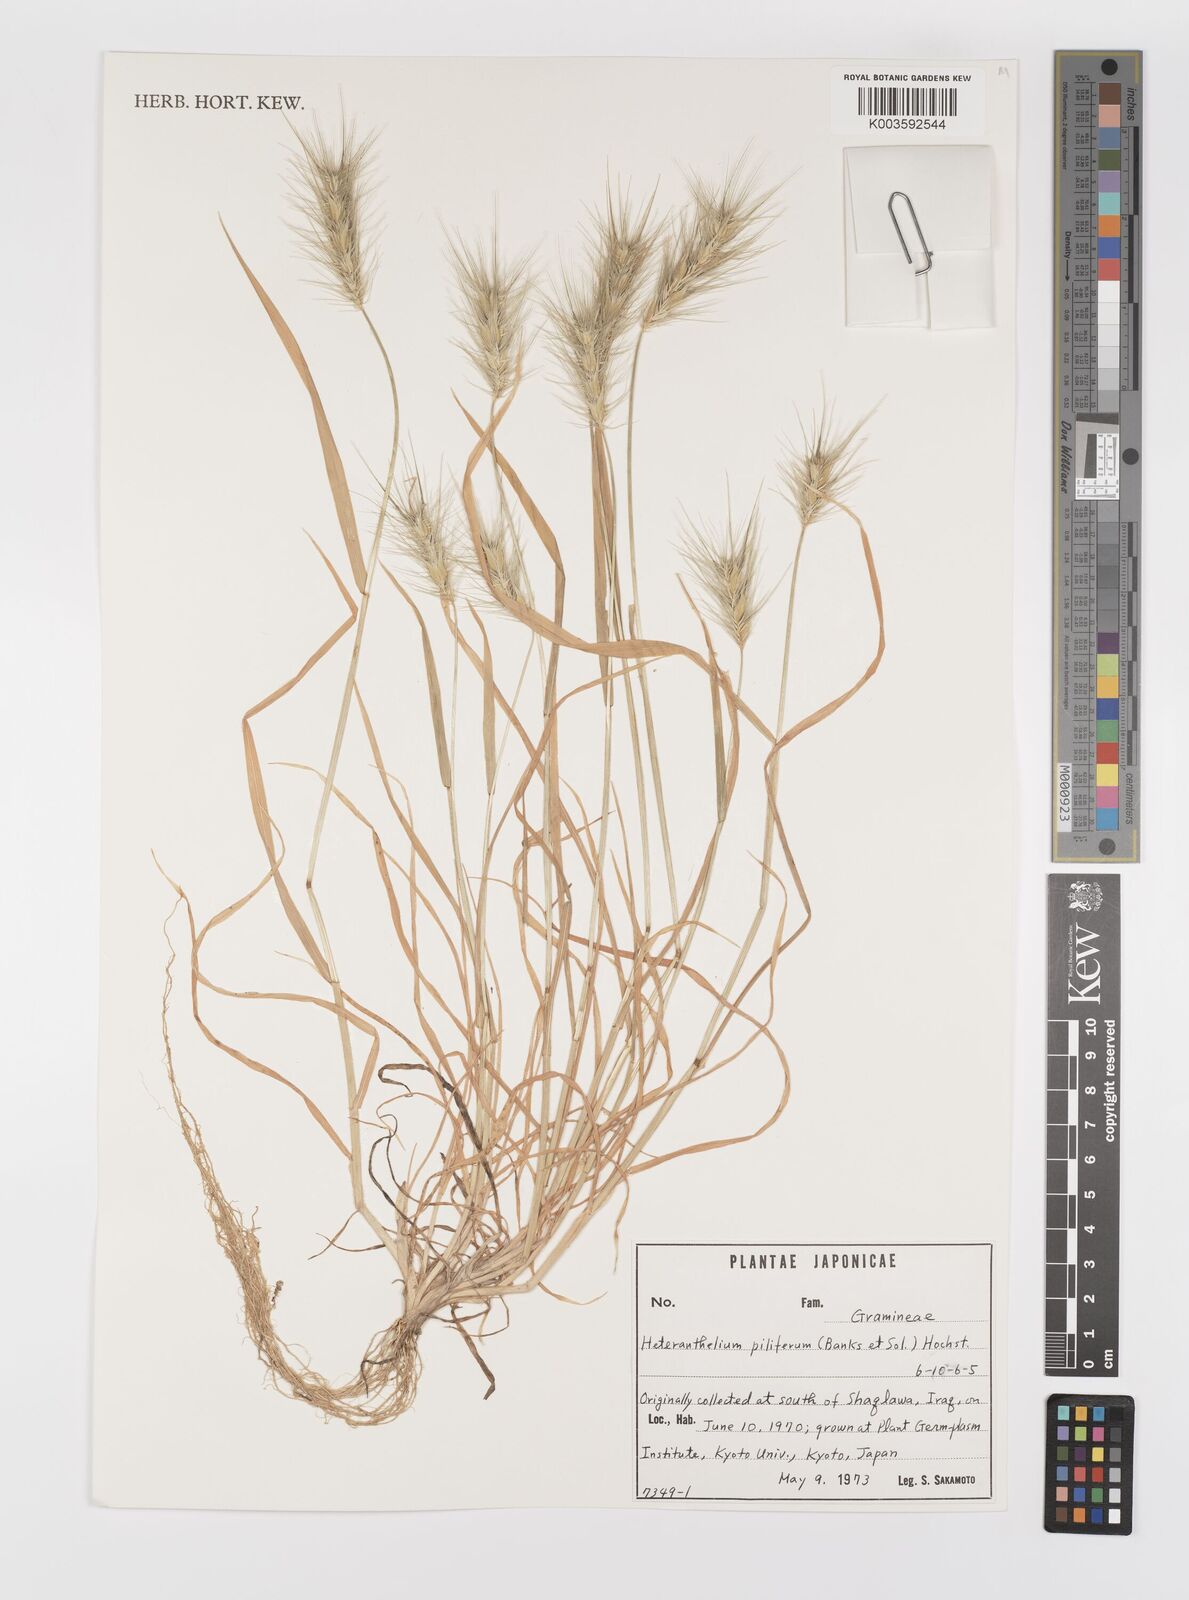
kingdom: Plantae
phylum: Tracheophyta
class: Liliopsida
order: Poales
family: Poaceae
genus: Heteranthelium
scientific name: Heteranthelium piliferum
